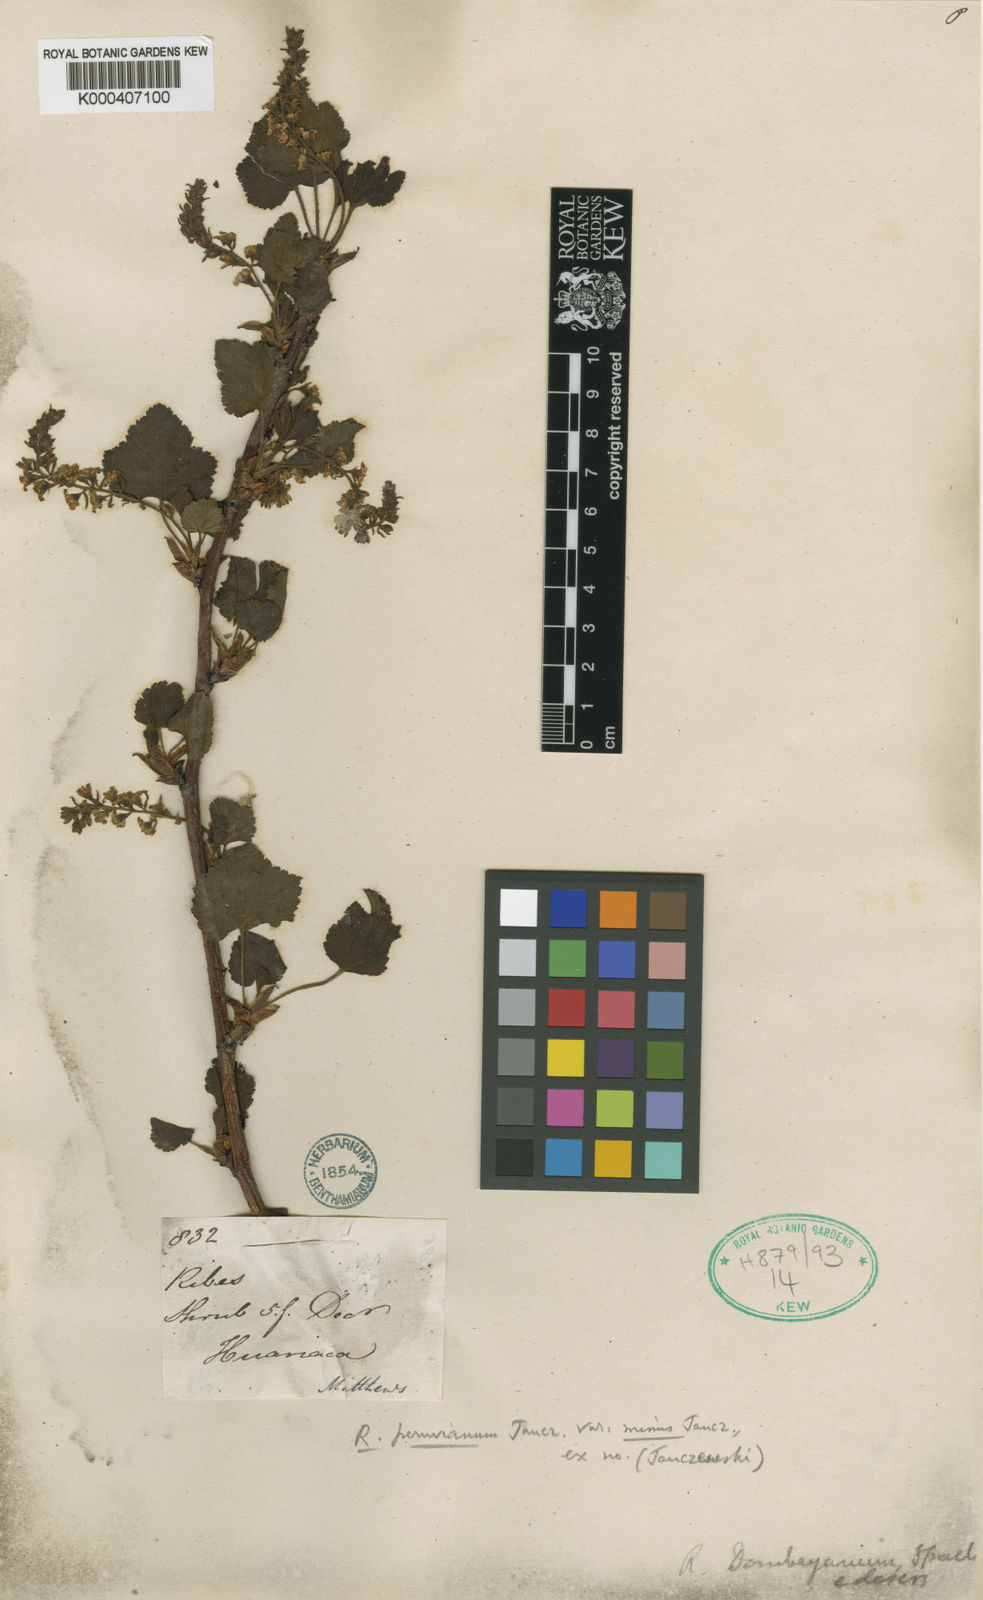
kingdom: Plantae
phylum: Tracheophyta
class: Magnoliopsida
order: Saxifragales
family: Grossulariaceae
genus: Ribes
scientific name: Ribes viscosum
